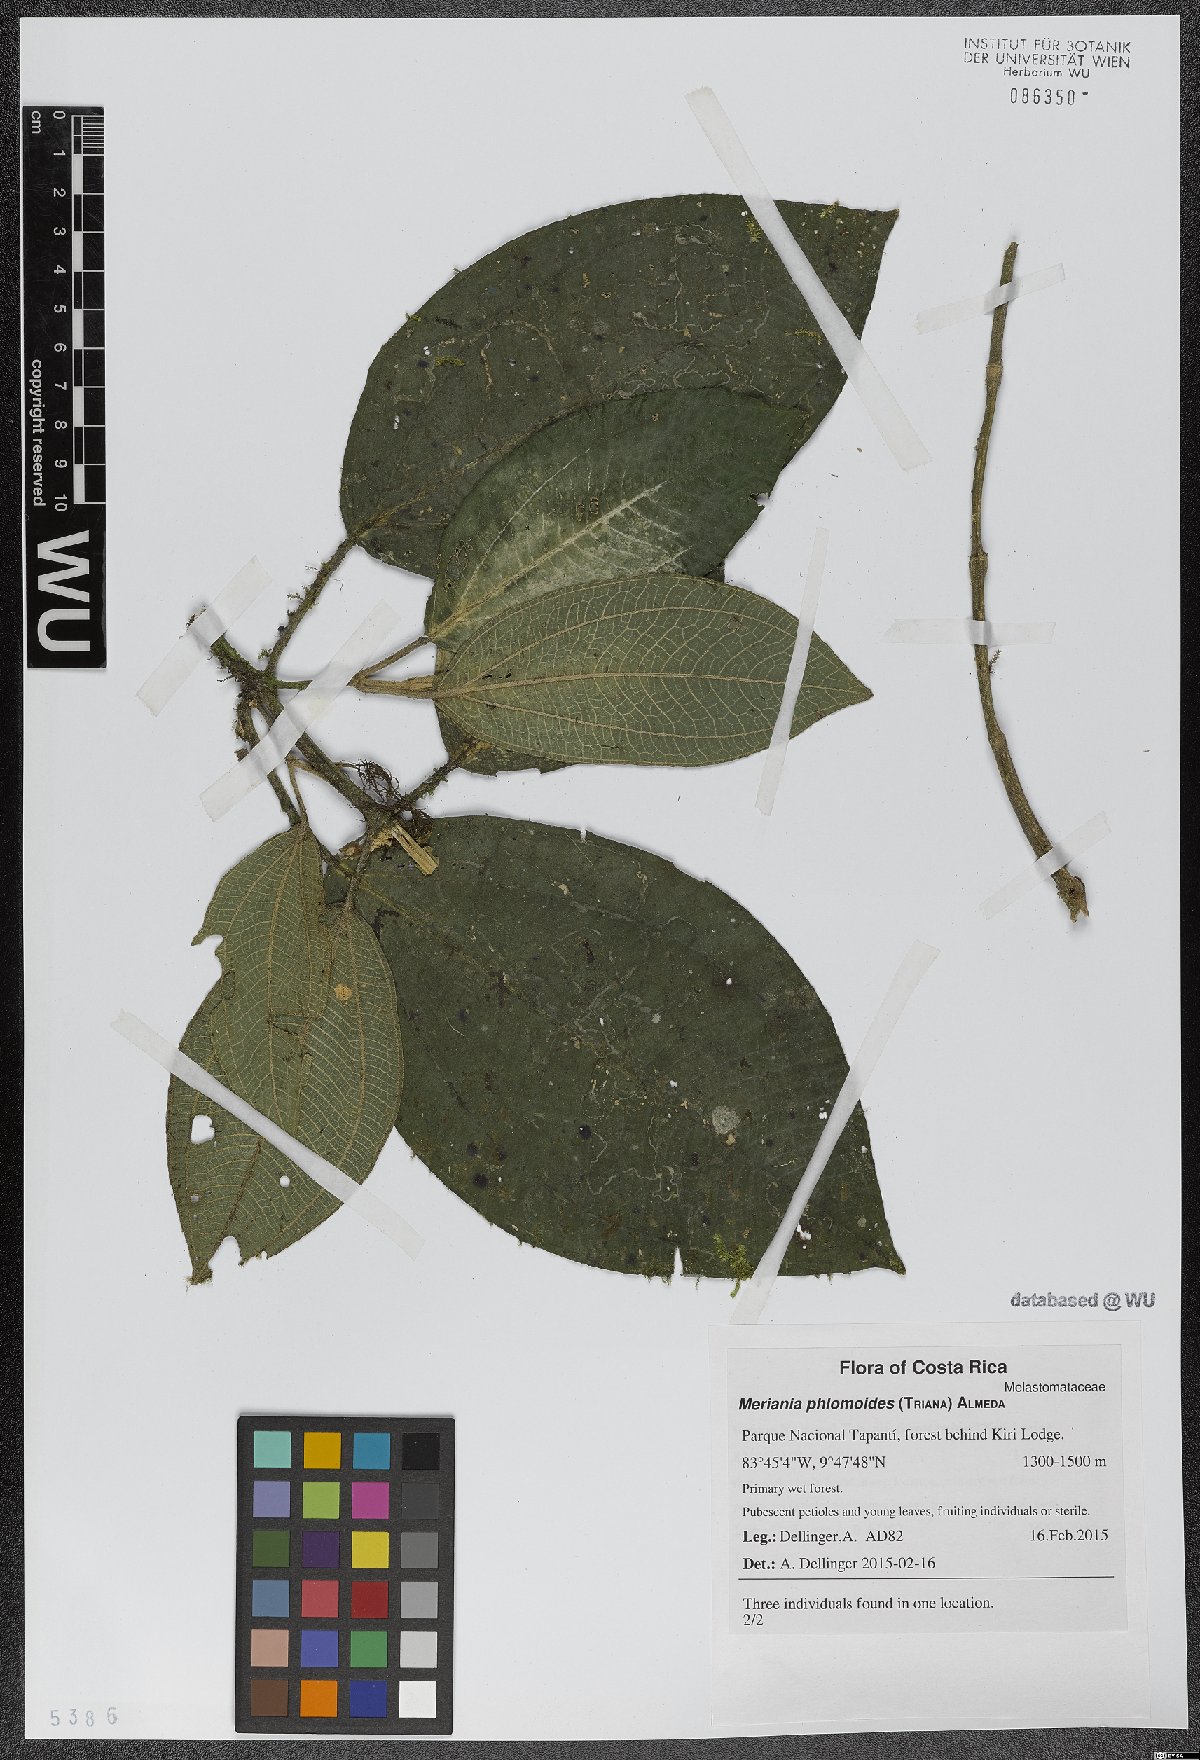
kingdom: Plantae
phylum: Tracheophyta
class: Magnoliopsida
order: Myrtales
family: Melastomataceae
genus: Meriania
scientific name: Meriania phlomoides
